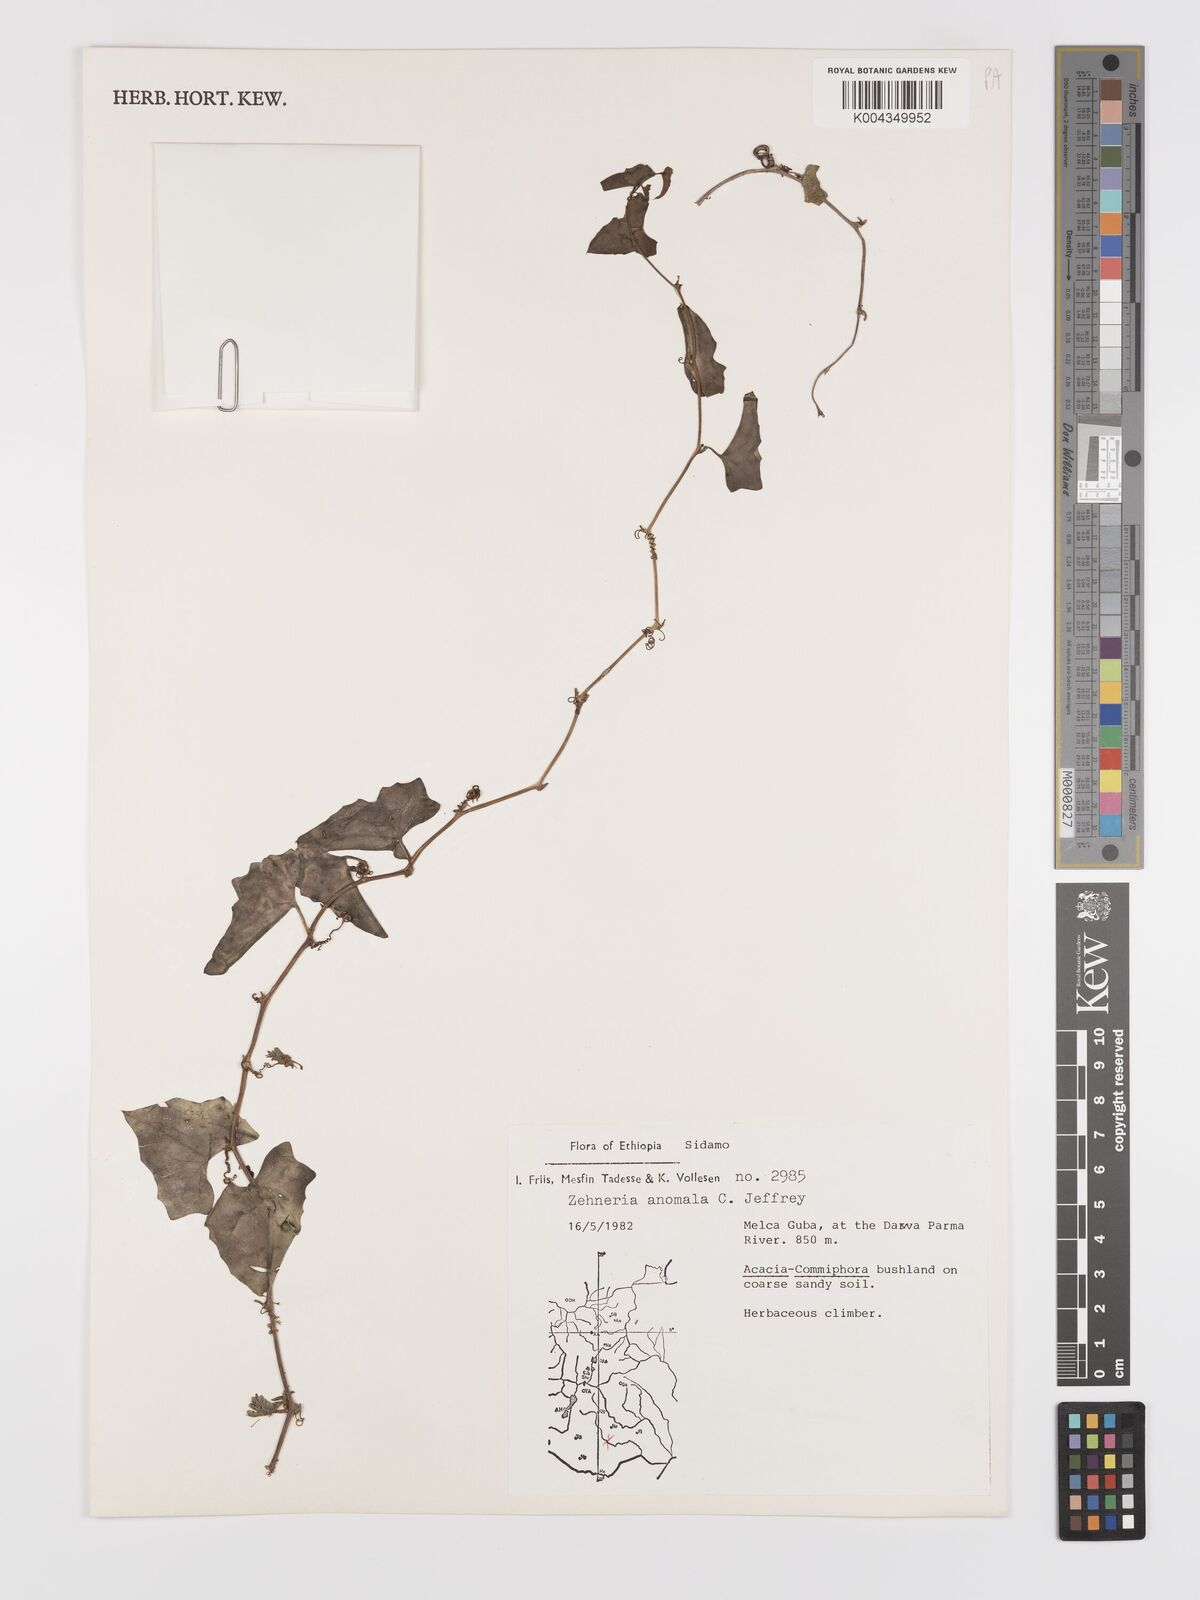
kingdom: Plantae
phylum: Tracheophyta
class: Magnoliopsida
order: Cucurbitales
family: Cucurbitaceae
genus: Zehneria
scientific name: Zehneria anomala
